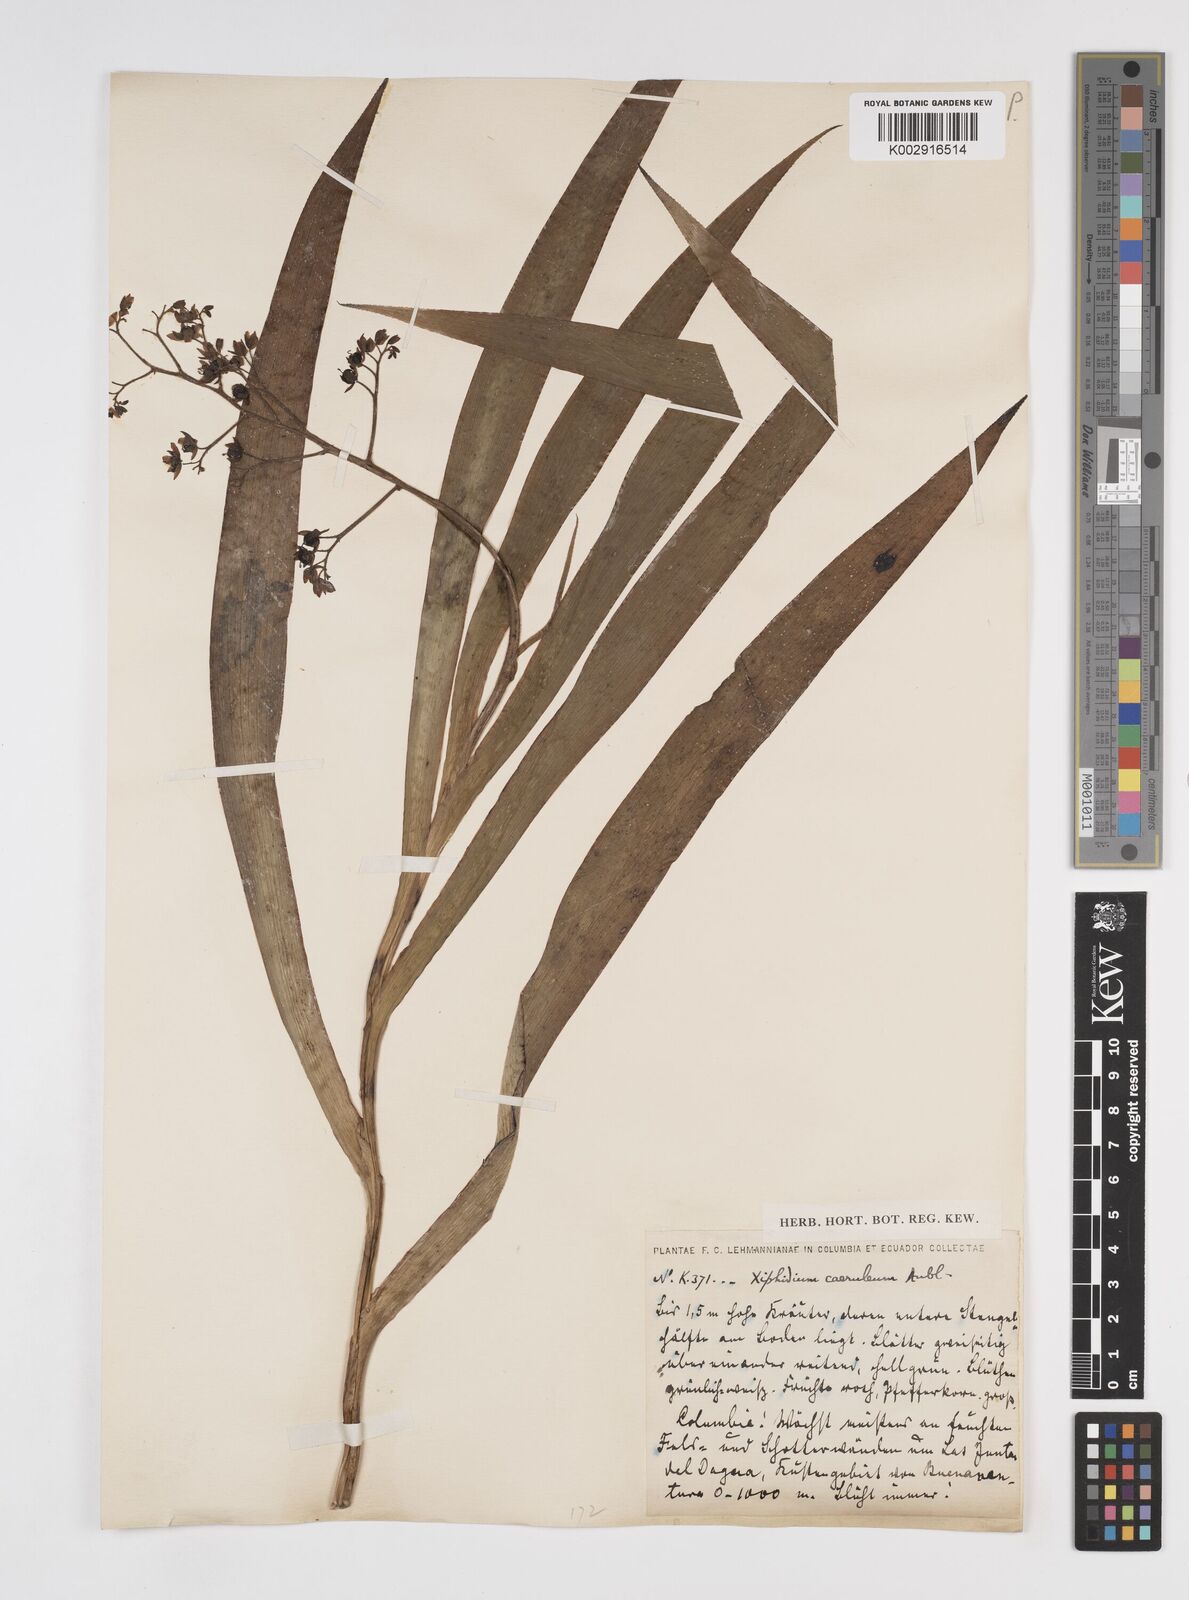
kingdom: Plantae
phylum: Tracheophyta
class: Liliopsida
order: Commelinales
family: Haemodoraceae
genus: Xiphidium
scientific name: Xiphidium caeruleum
